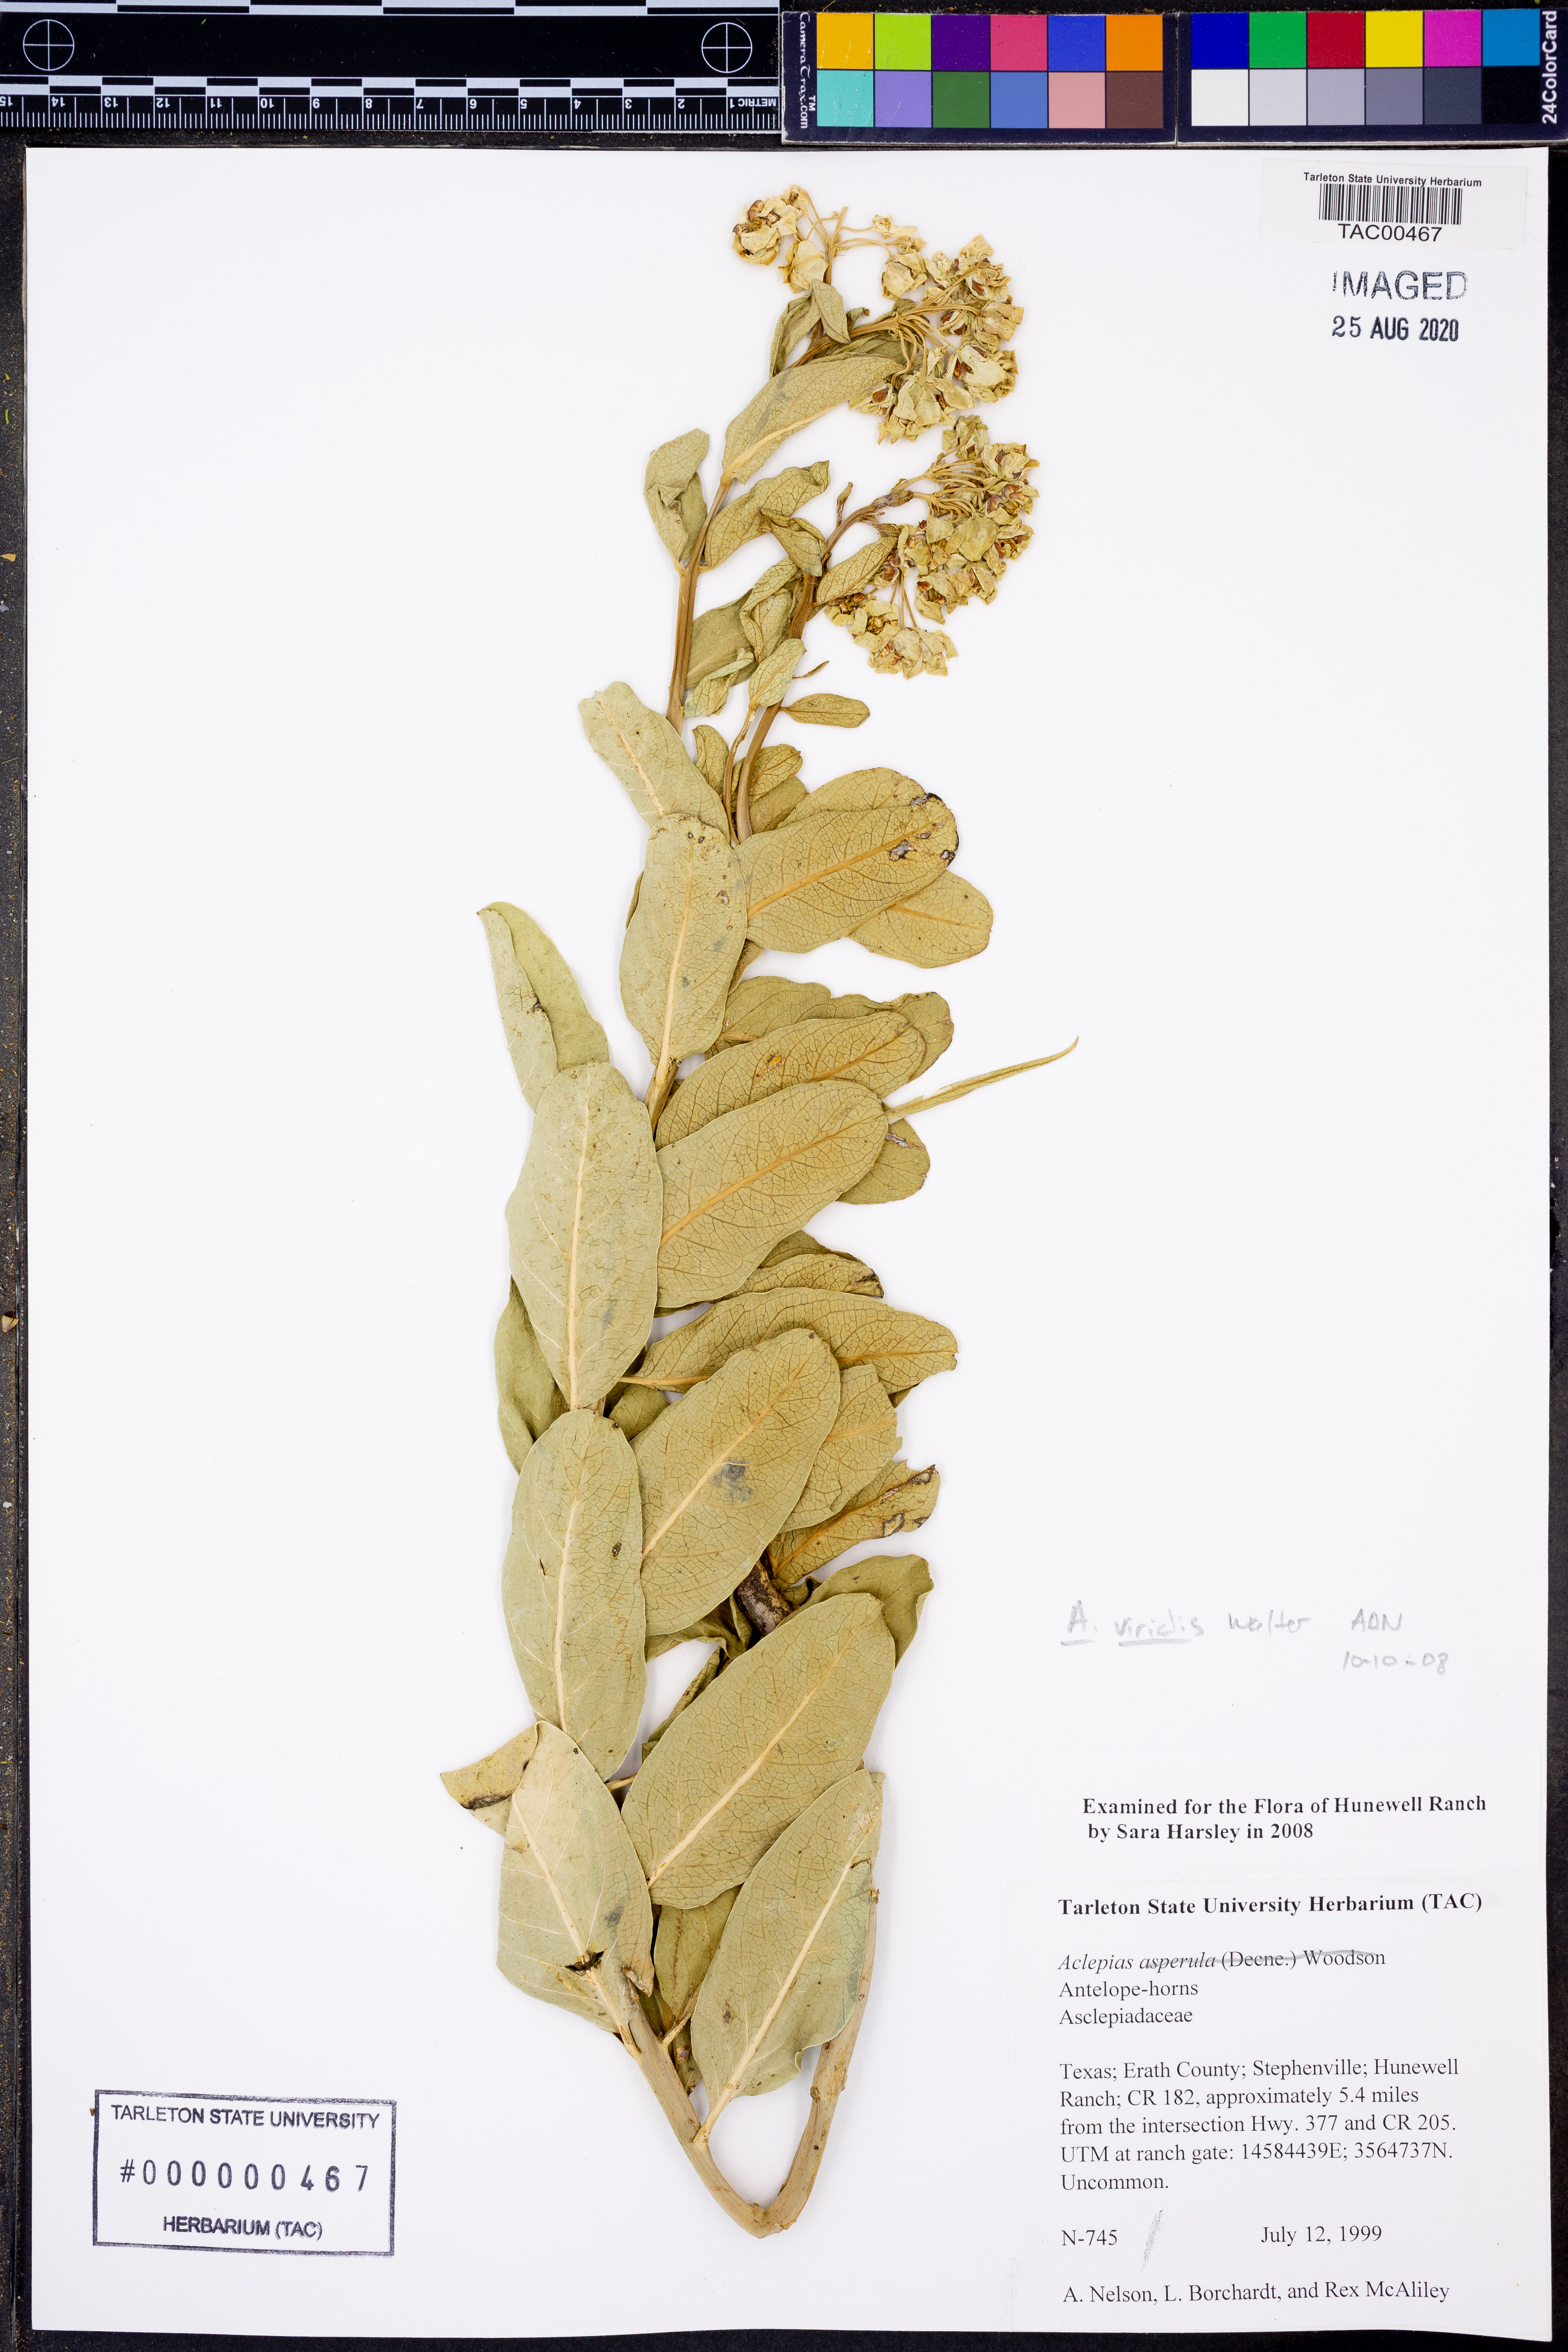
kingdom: Plantae
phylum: Tracheophyta
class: Magnoliopsida
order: Gentianales
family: Apocynaceae
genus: Asclepias
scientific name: Asclepias viridis
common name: Antelope-horns
